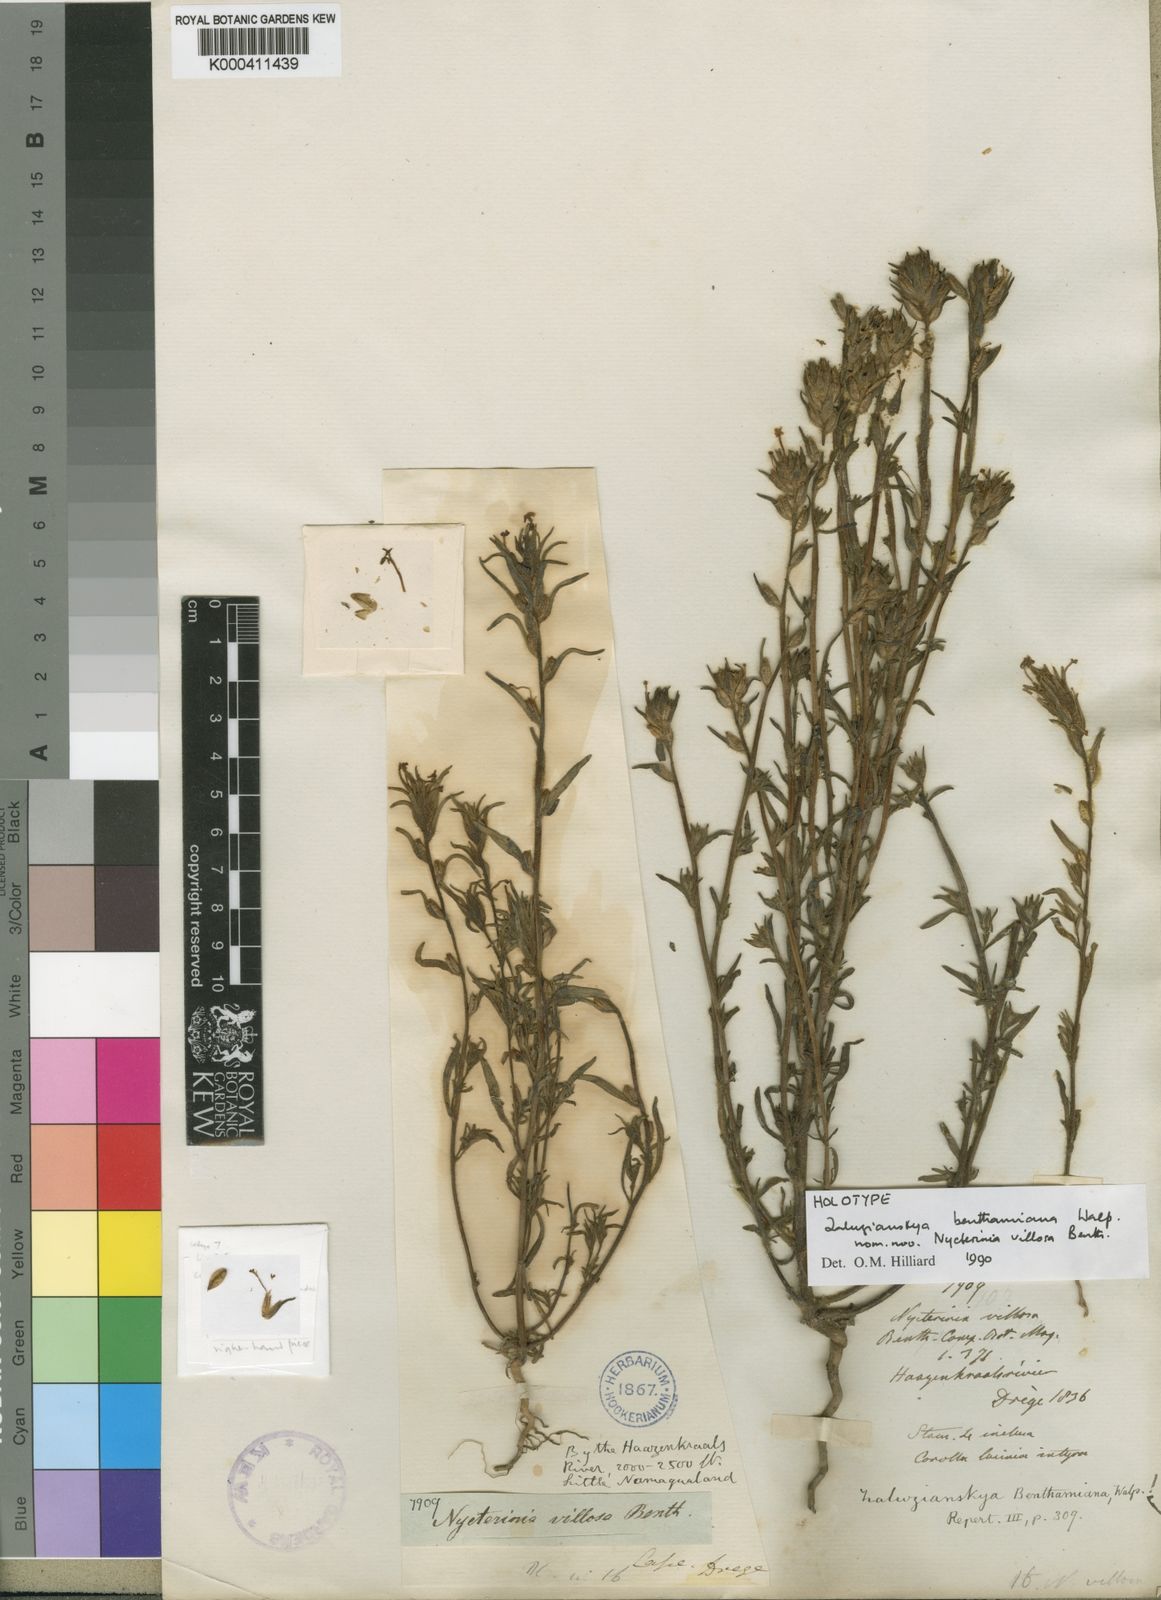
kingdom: Plantae
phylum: Tracheophyta
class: Magnoliopsida
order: Lamiales
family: Scrophulariaceae
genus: Zaluzianskya
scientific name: Zaluzianskya benthamiana
